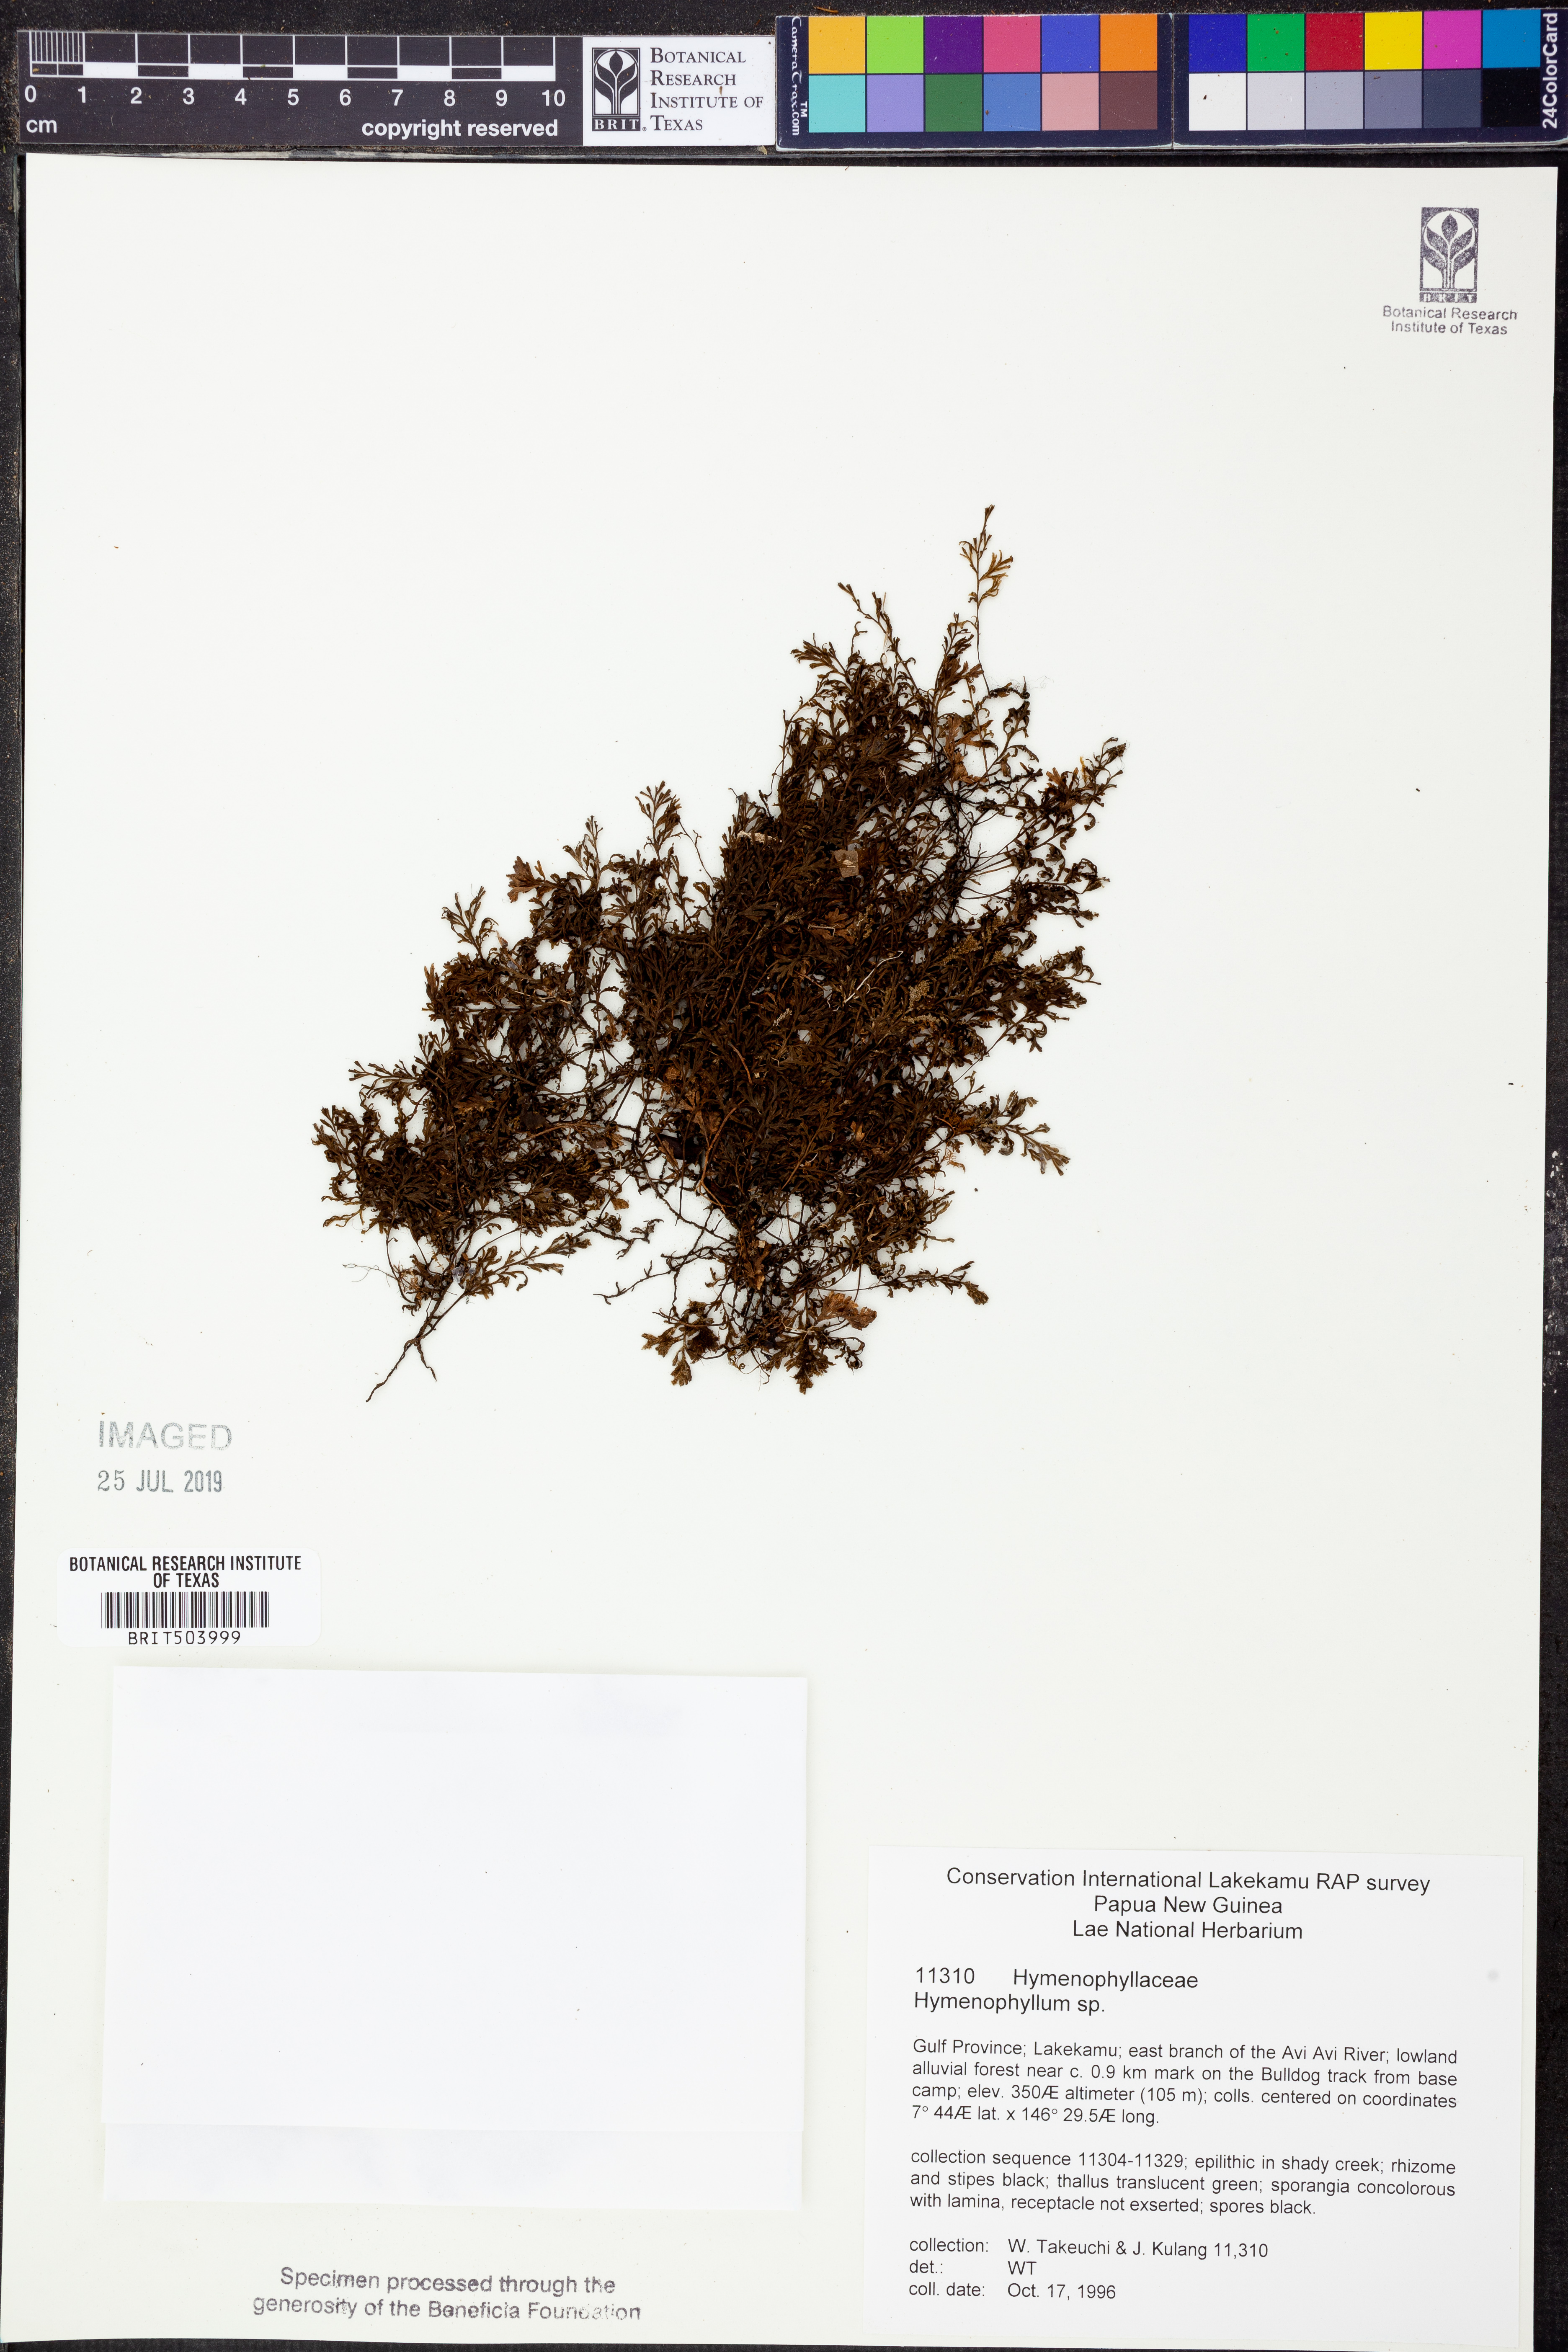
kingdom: Plantae
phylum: Tracheophyta
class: Polypodiopsida
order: Hymenophyllales
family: Hymenophyllaceae
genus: Hymenophyllum
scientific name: Hymenophyllum
